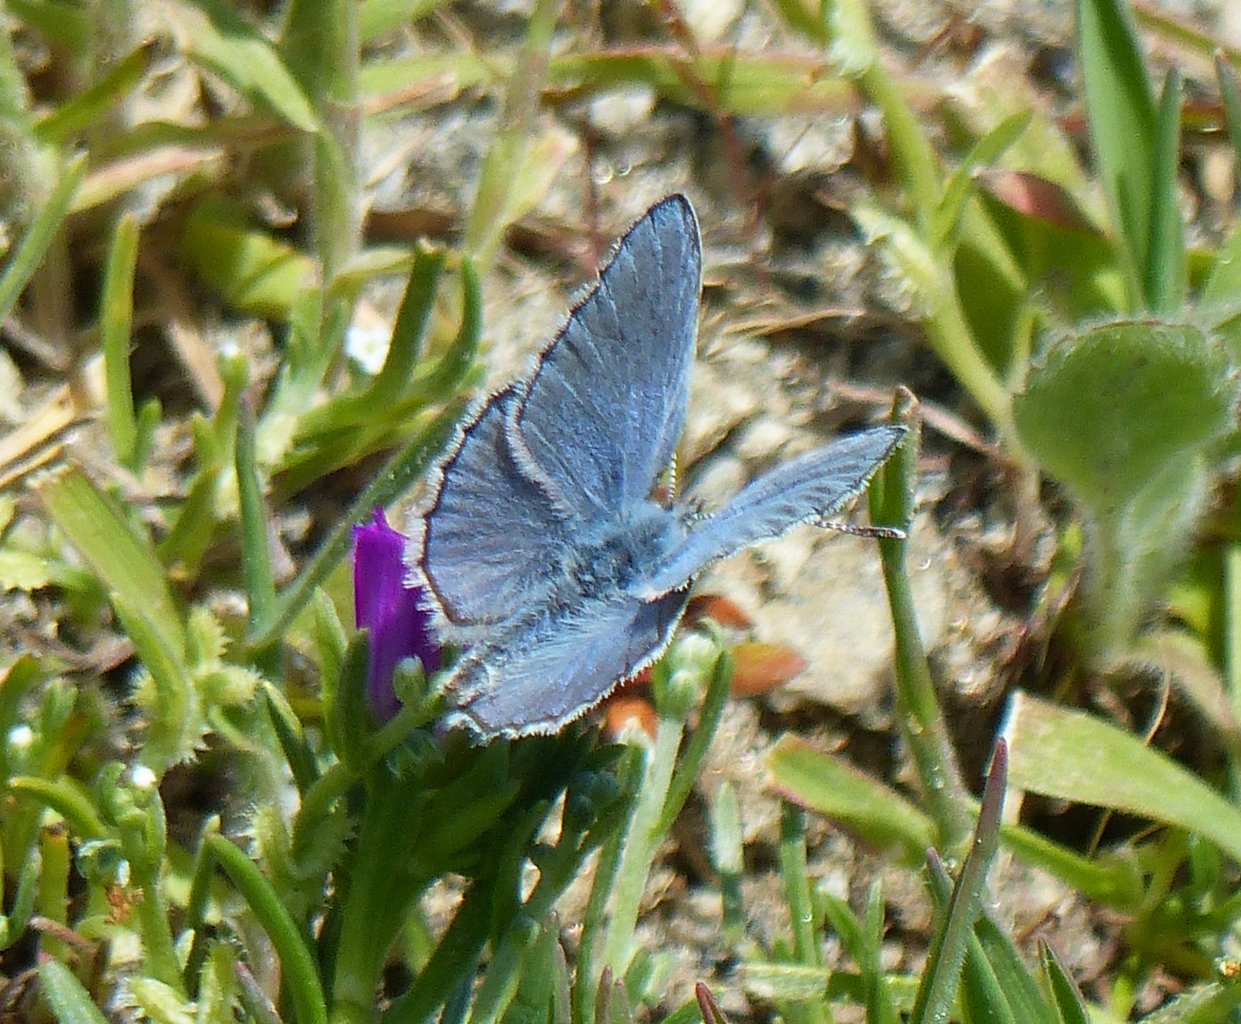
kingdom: Animalia
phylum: Arthropoda
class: Insecta
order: Lepidoptera
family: Lycaenidae
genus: Lycaeides
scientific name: Lycaeides melissa
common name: Melissa Blue
